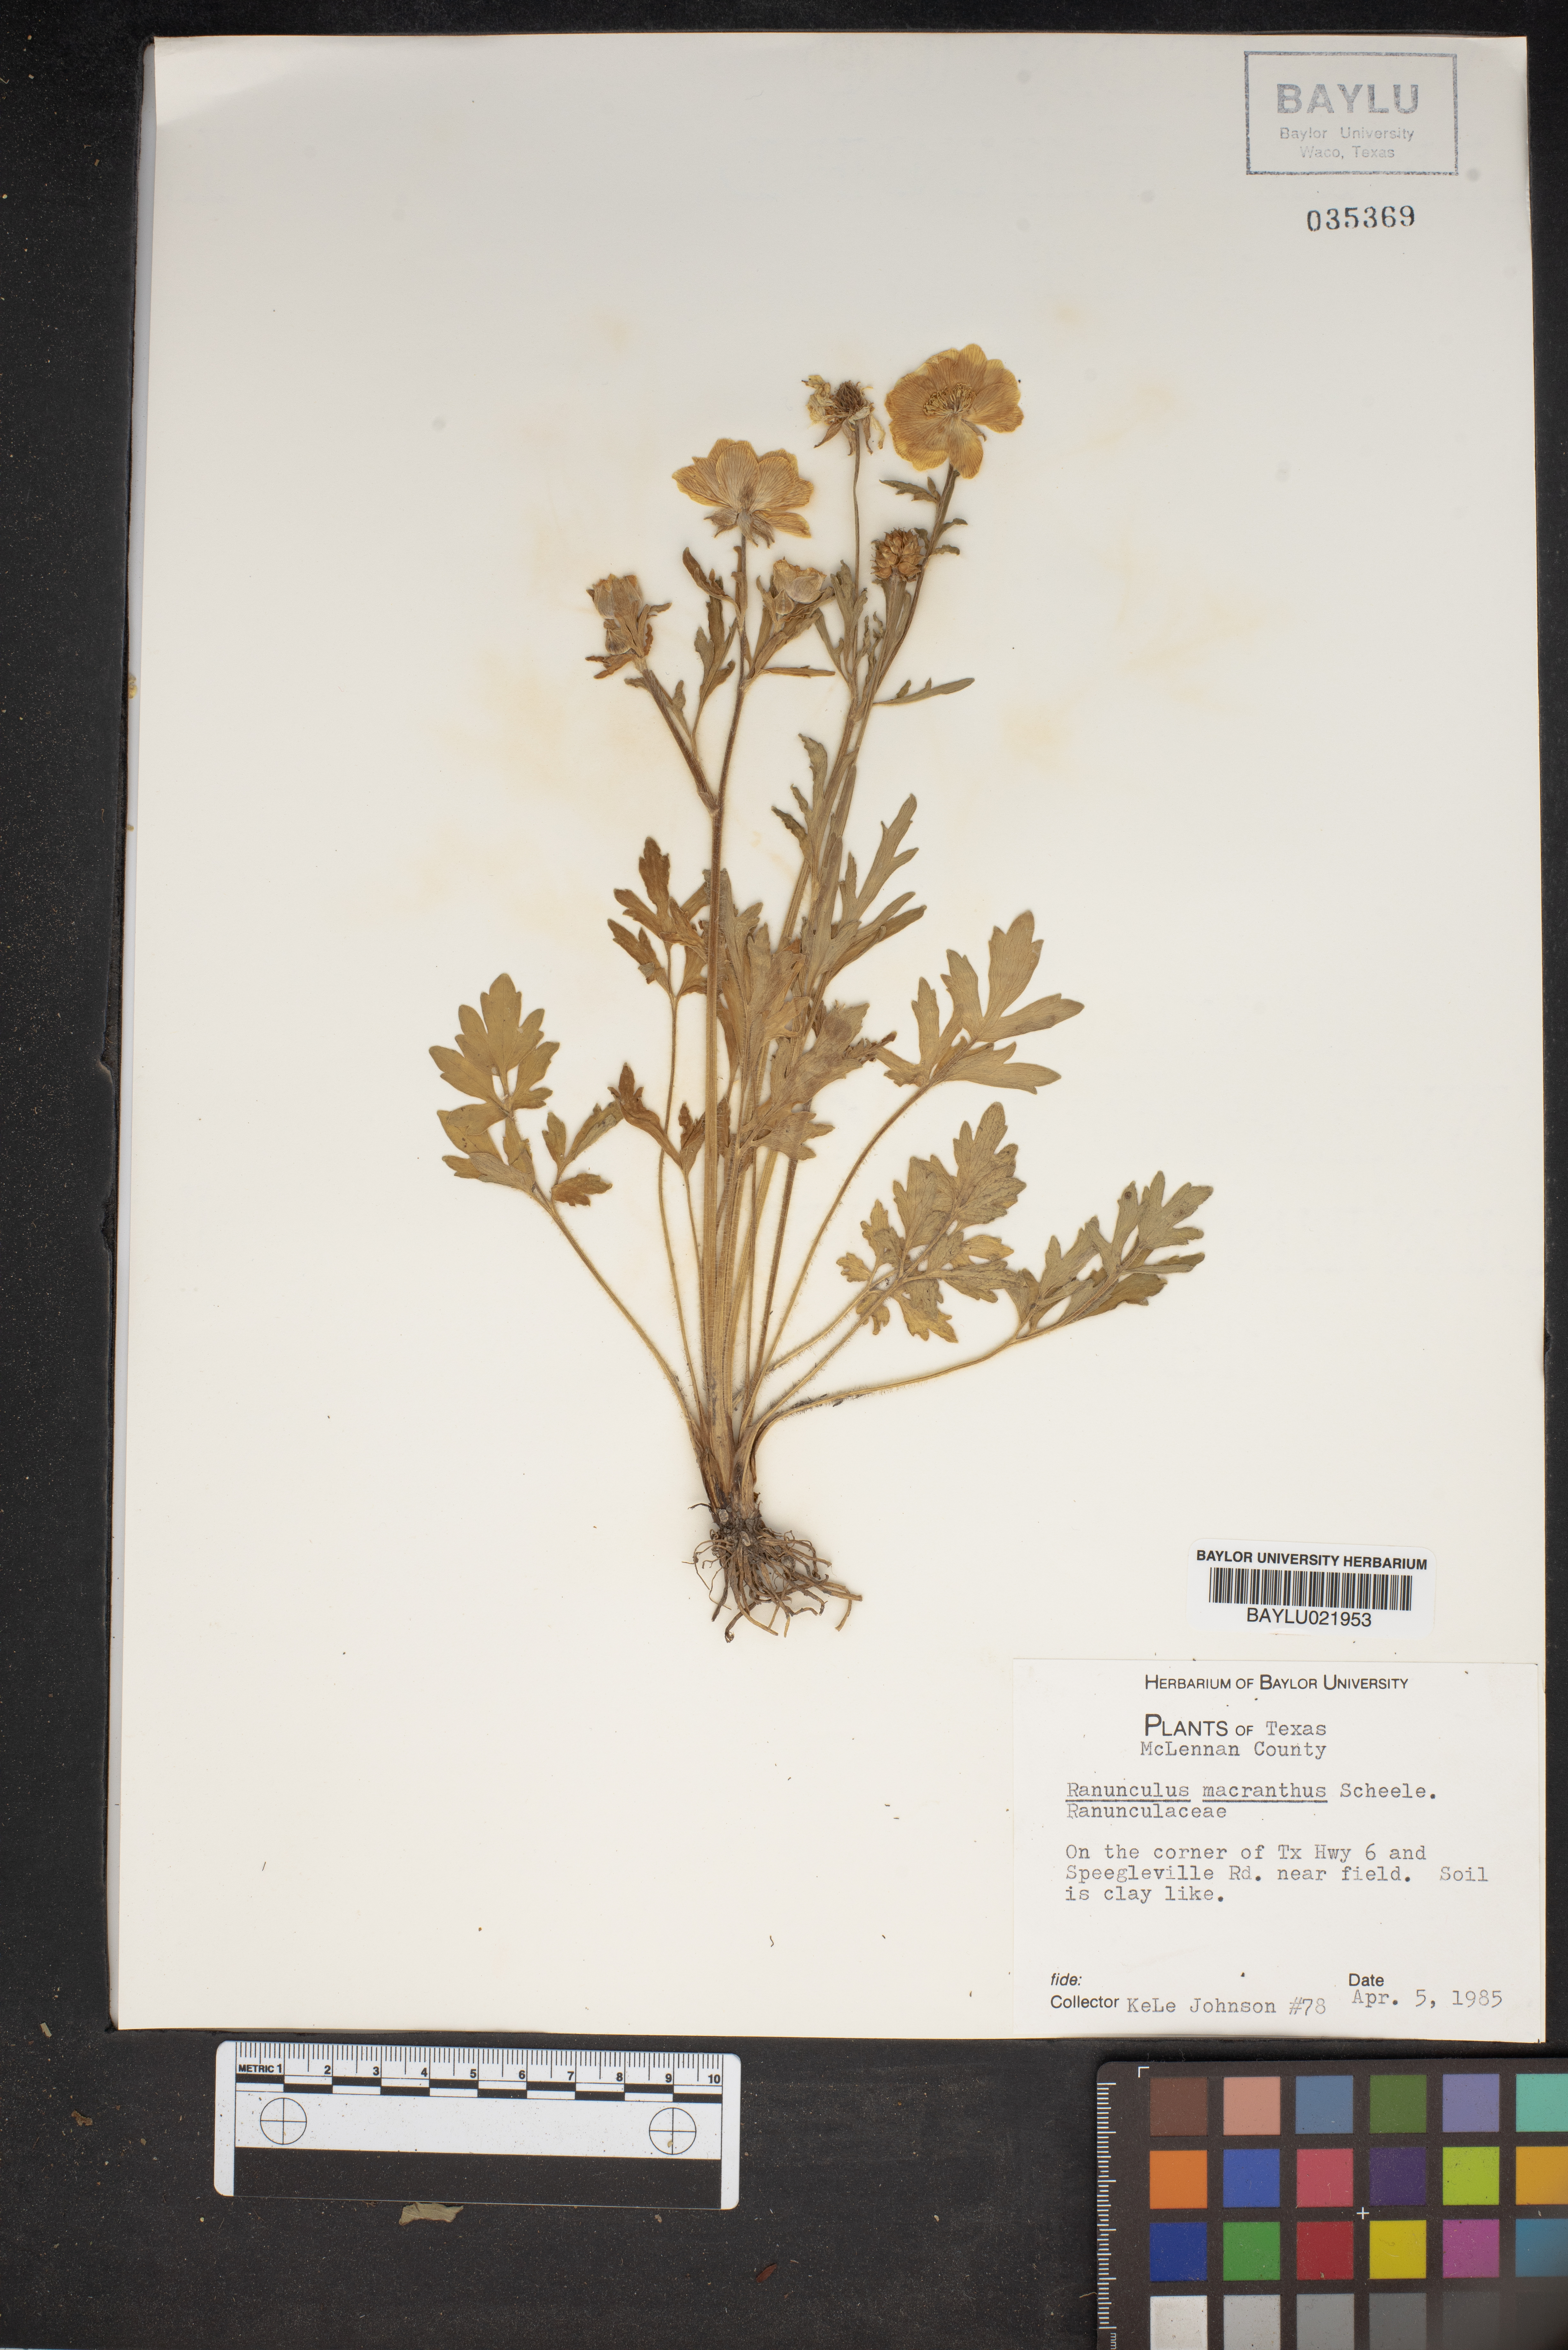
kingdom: Plantae
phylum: Tracheophyta
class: Magnoliopsida
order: Ranunculales
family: Ranunculaceae
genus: Ranunculus
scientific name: Ranunculus macranthus
